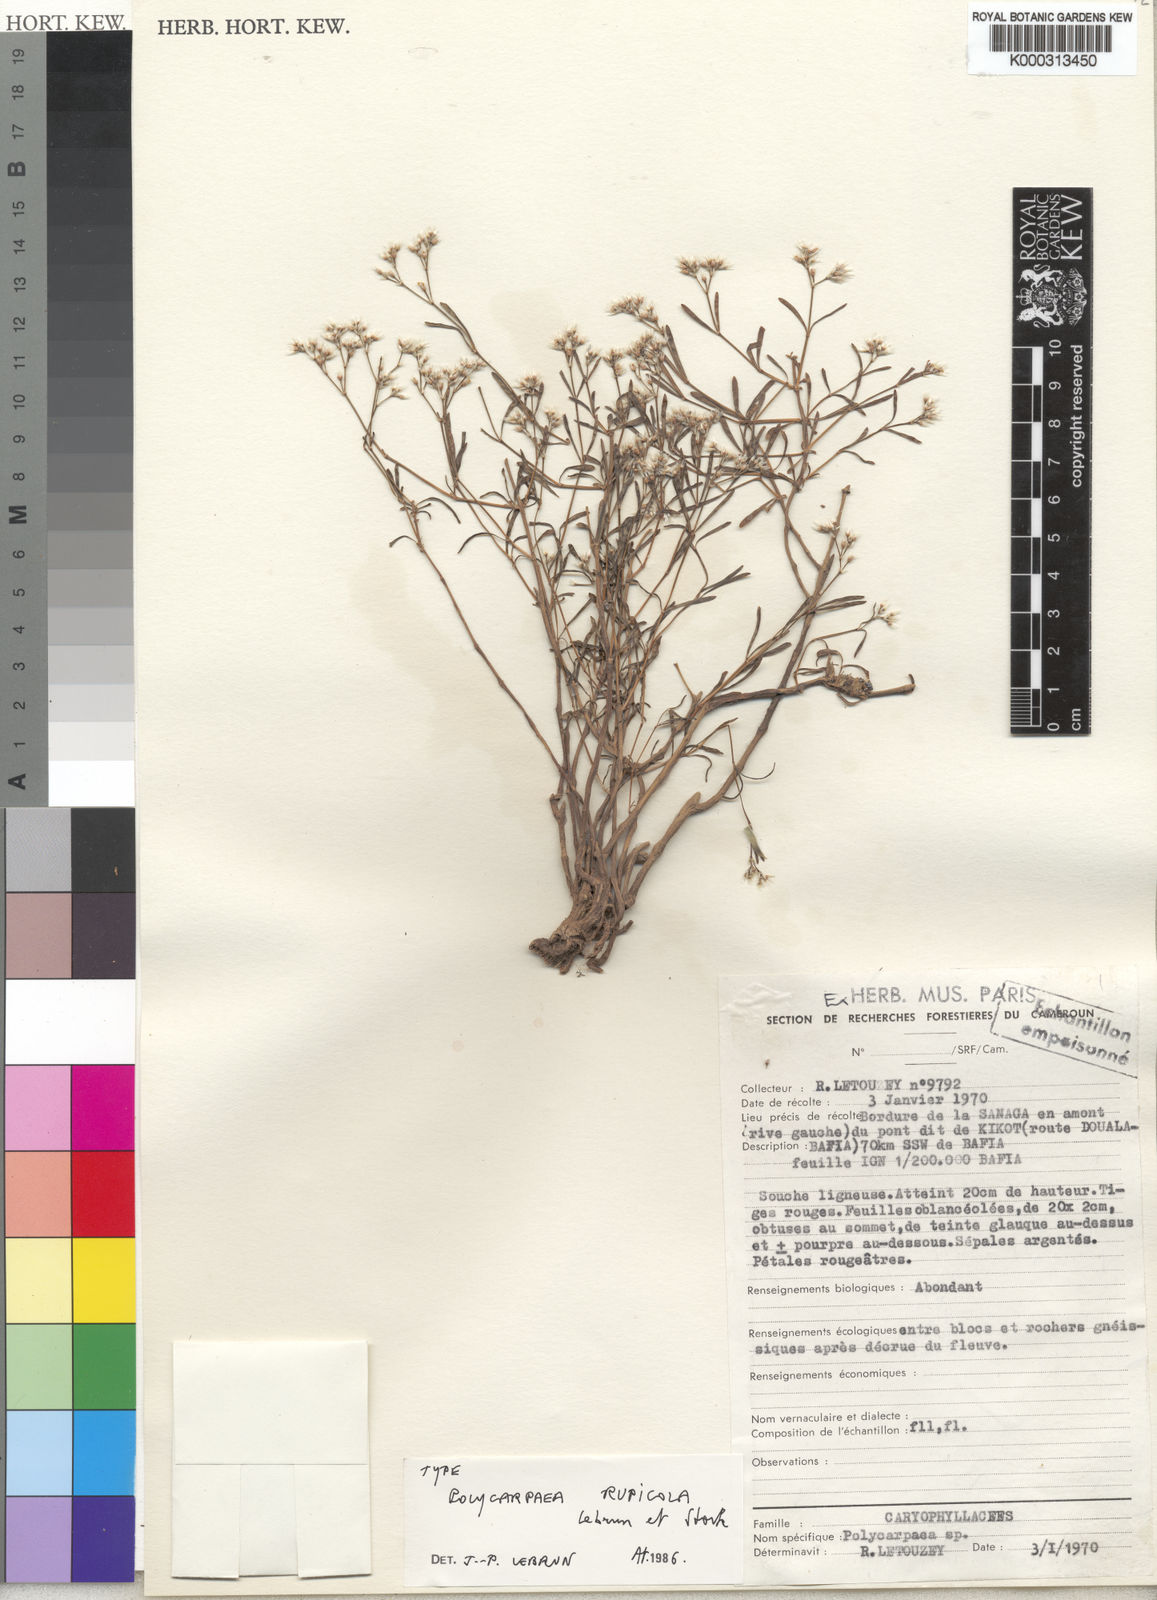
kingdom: Plantae
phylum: Tracheophyta
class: Magnoliopsida
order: Caryophyllales
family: Caryophyllaceae
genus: Polycarpaea
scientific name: Polycarpaea
